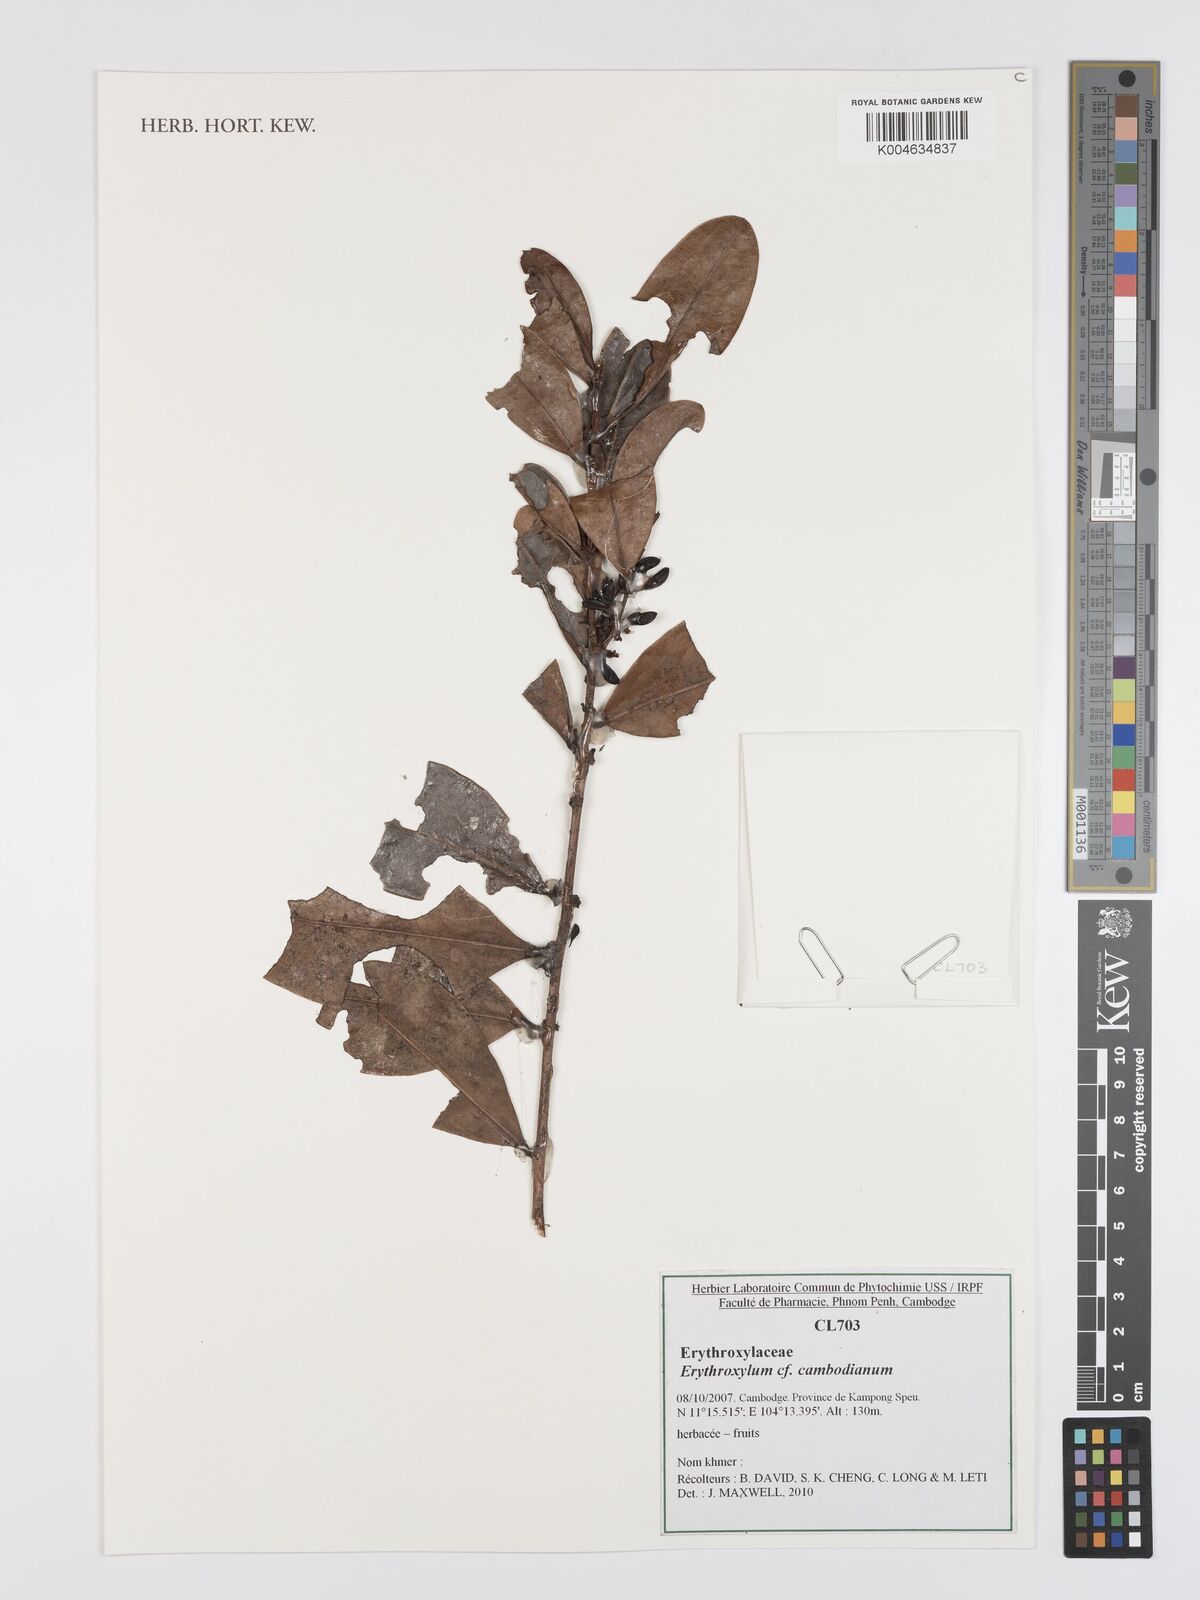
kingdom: Plantae
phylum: Tracheophyta
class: Magnoliopsida
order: Malpighiales
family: Erythroxylaceae
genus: Erythroxylum
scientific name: Erythroxylum cambodianum
